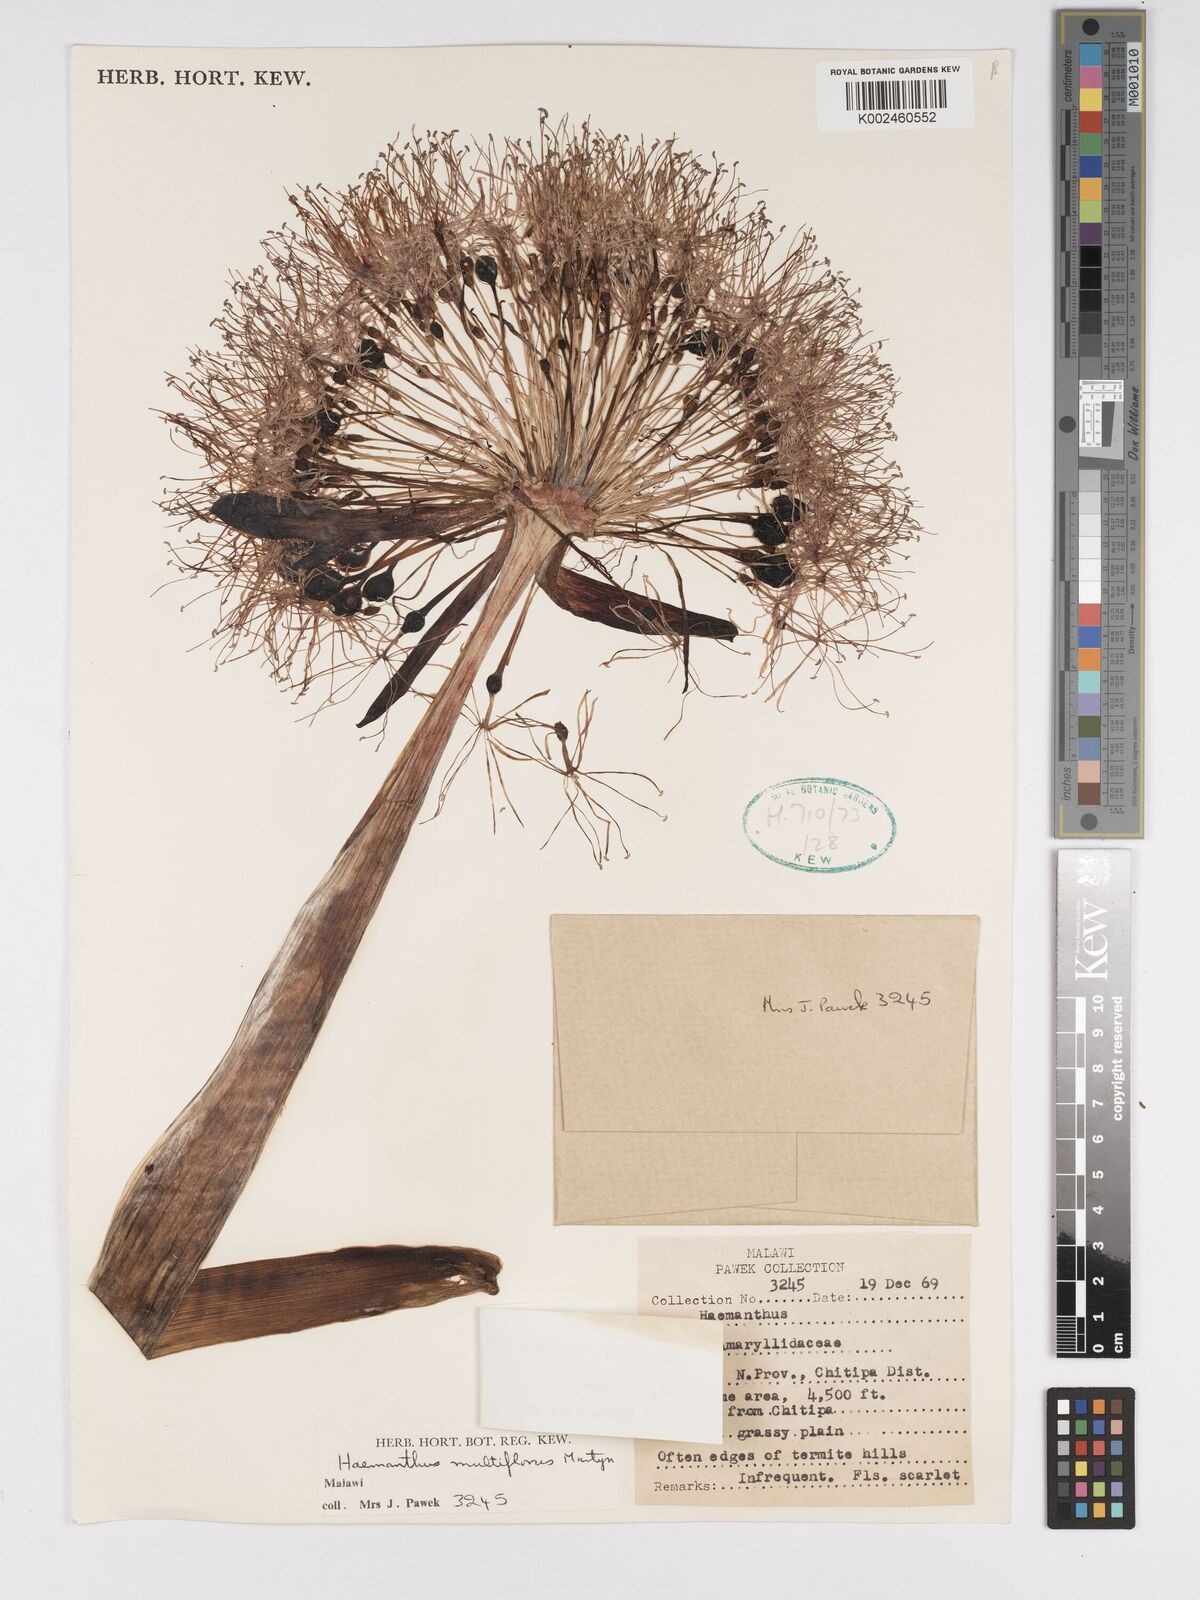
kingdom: Plantae
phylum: Tracheophyta
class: Liliopsida
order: Asparagales
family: Amaryllidaceae
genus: Scadoxus
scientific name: Scadoxus multiflorus
